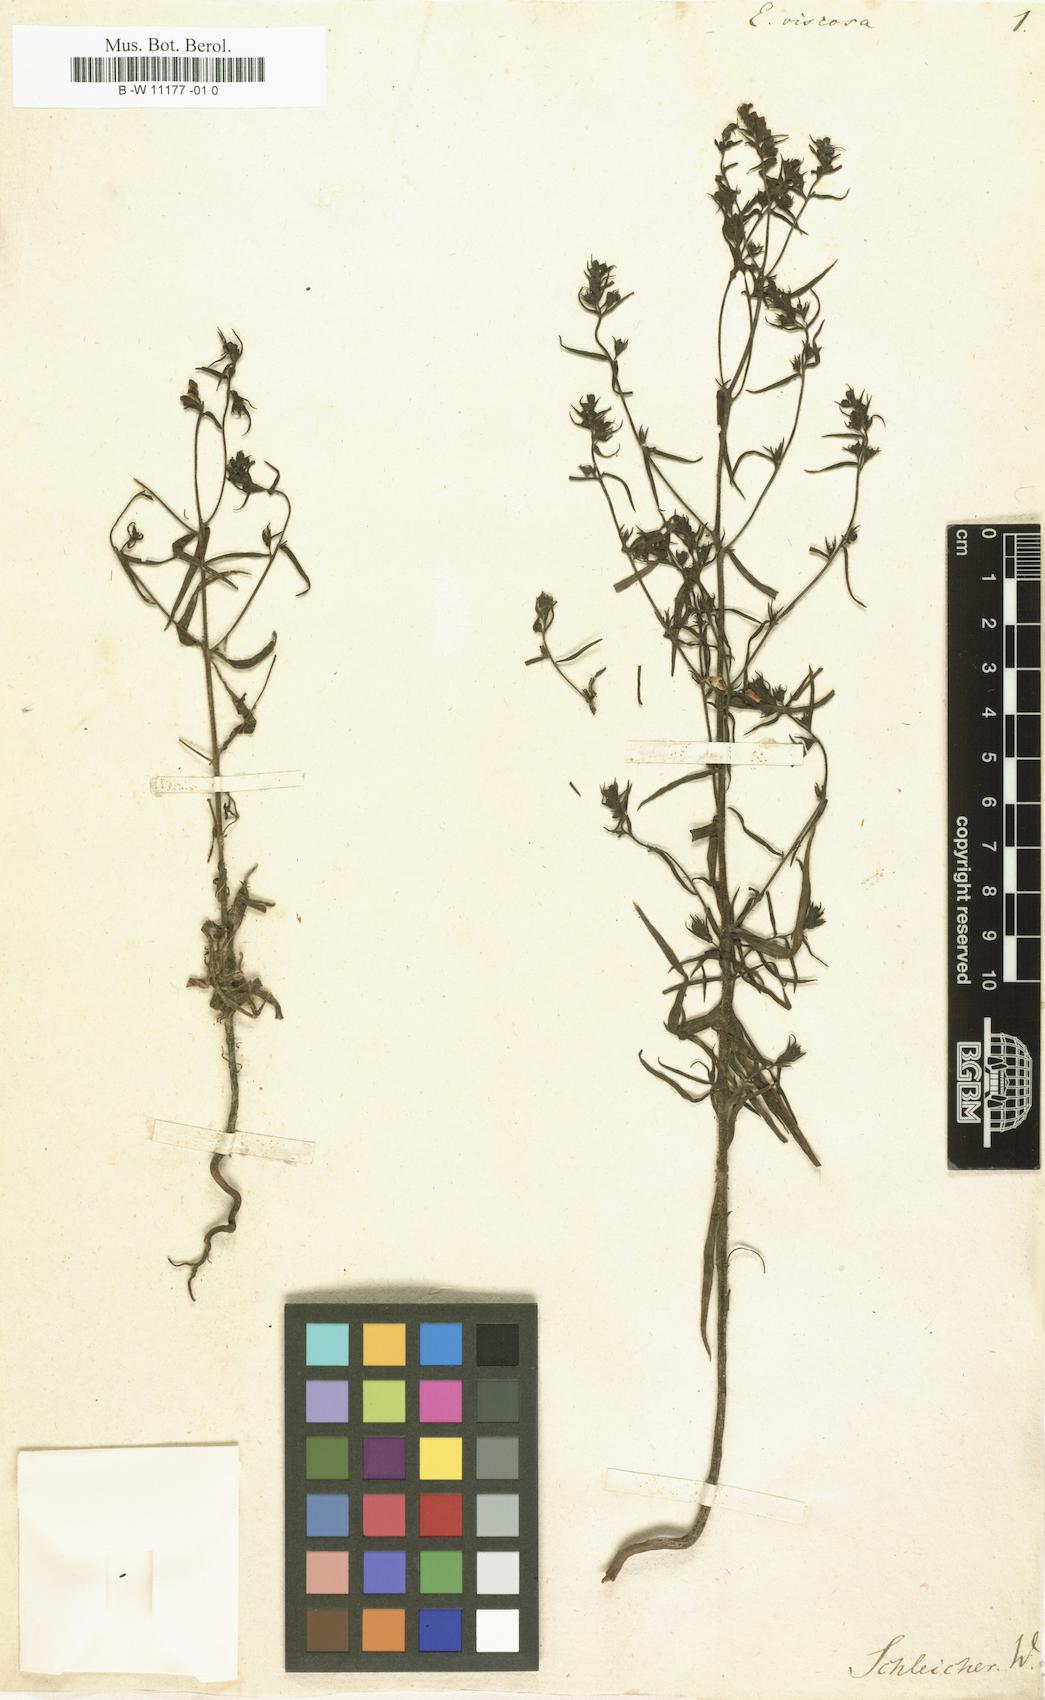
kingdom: Plantae
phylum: Tracheophyta
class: Magnoliopsida
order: Lamiales
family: Orobanchaceae
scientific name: Orobanchaceae
